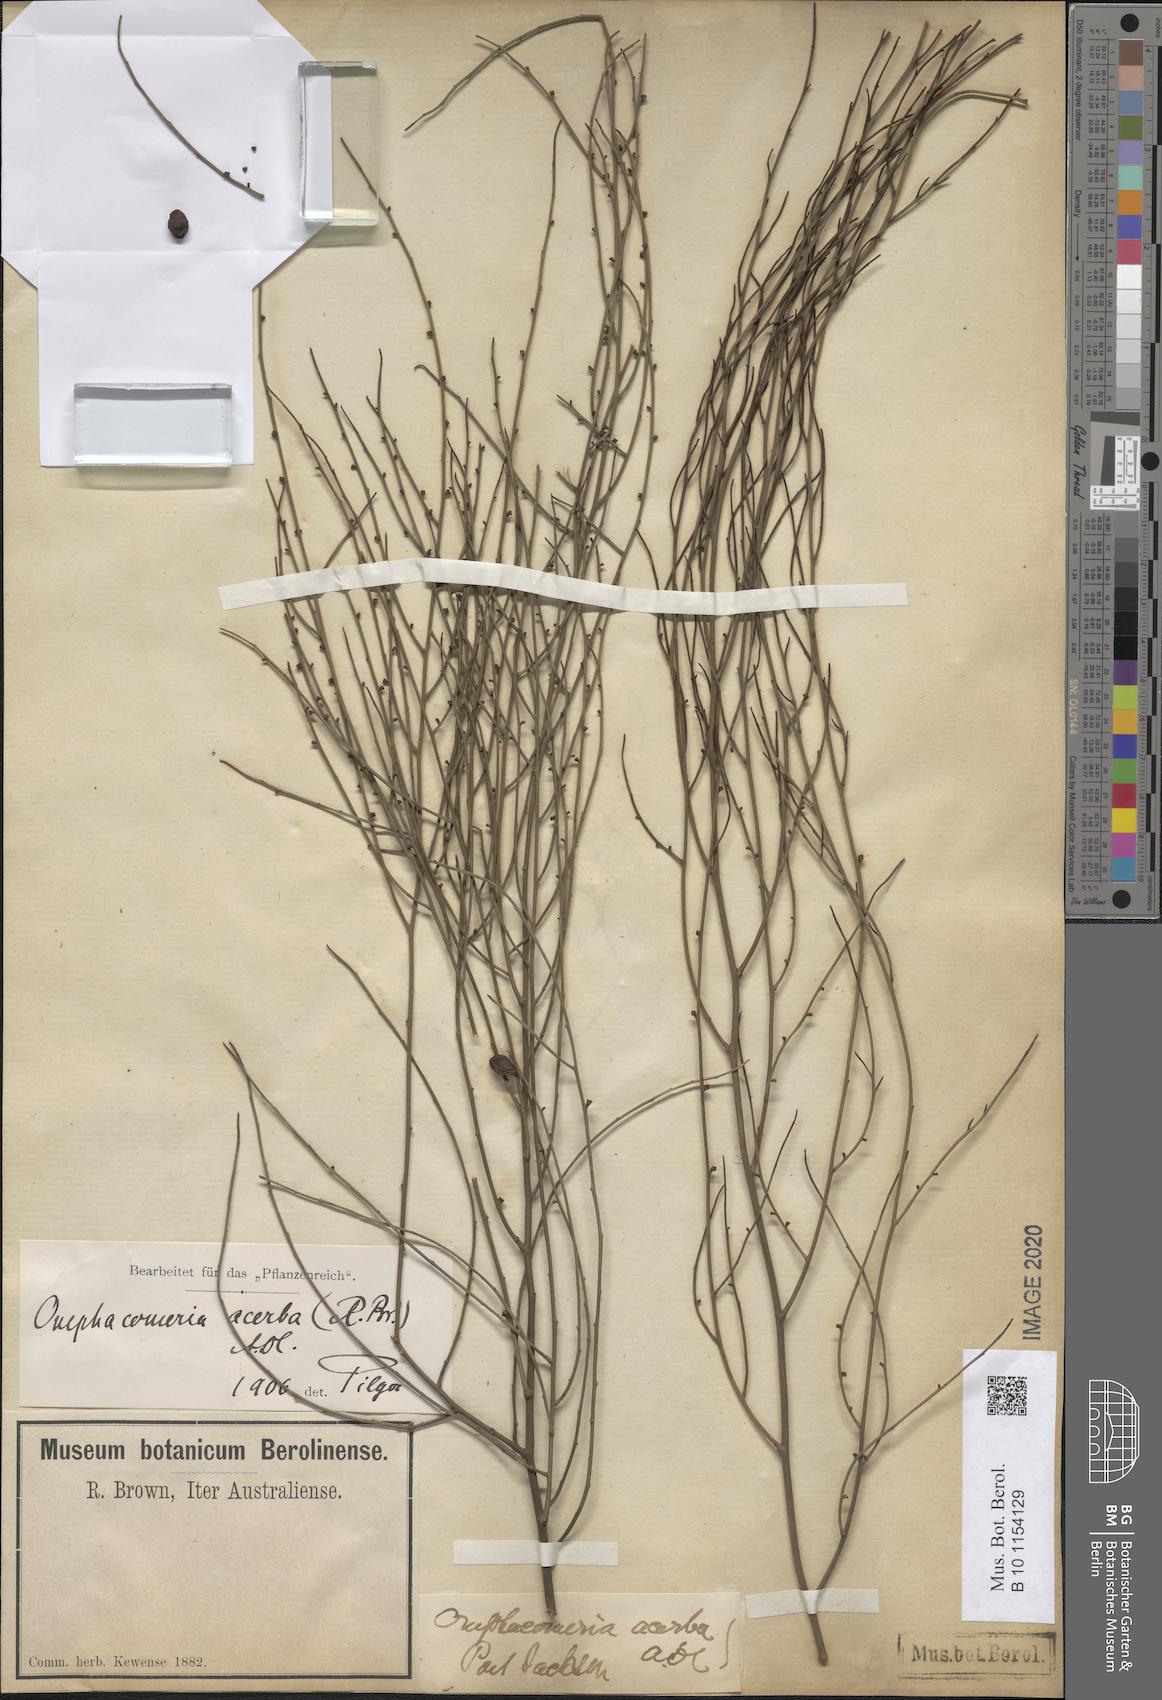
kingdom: Plantae
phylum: Tracheophyta
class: Magnoliopsida
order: Santalales
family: Santalaceae
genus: Omphacomeria
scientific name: Omphacomeria acerba
